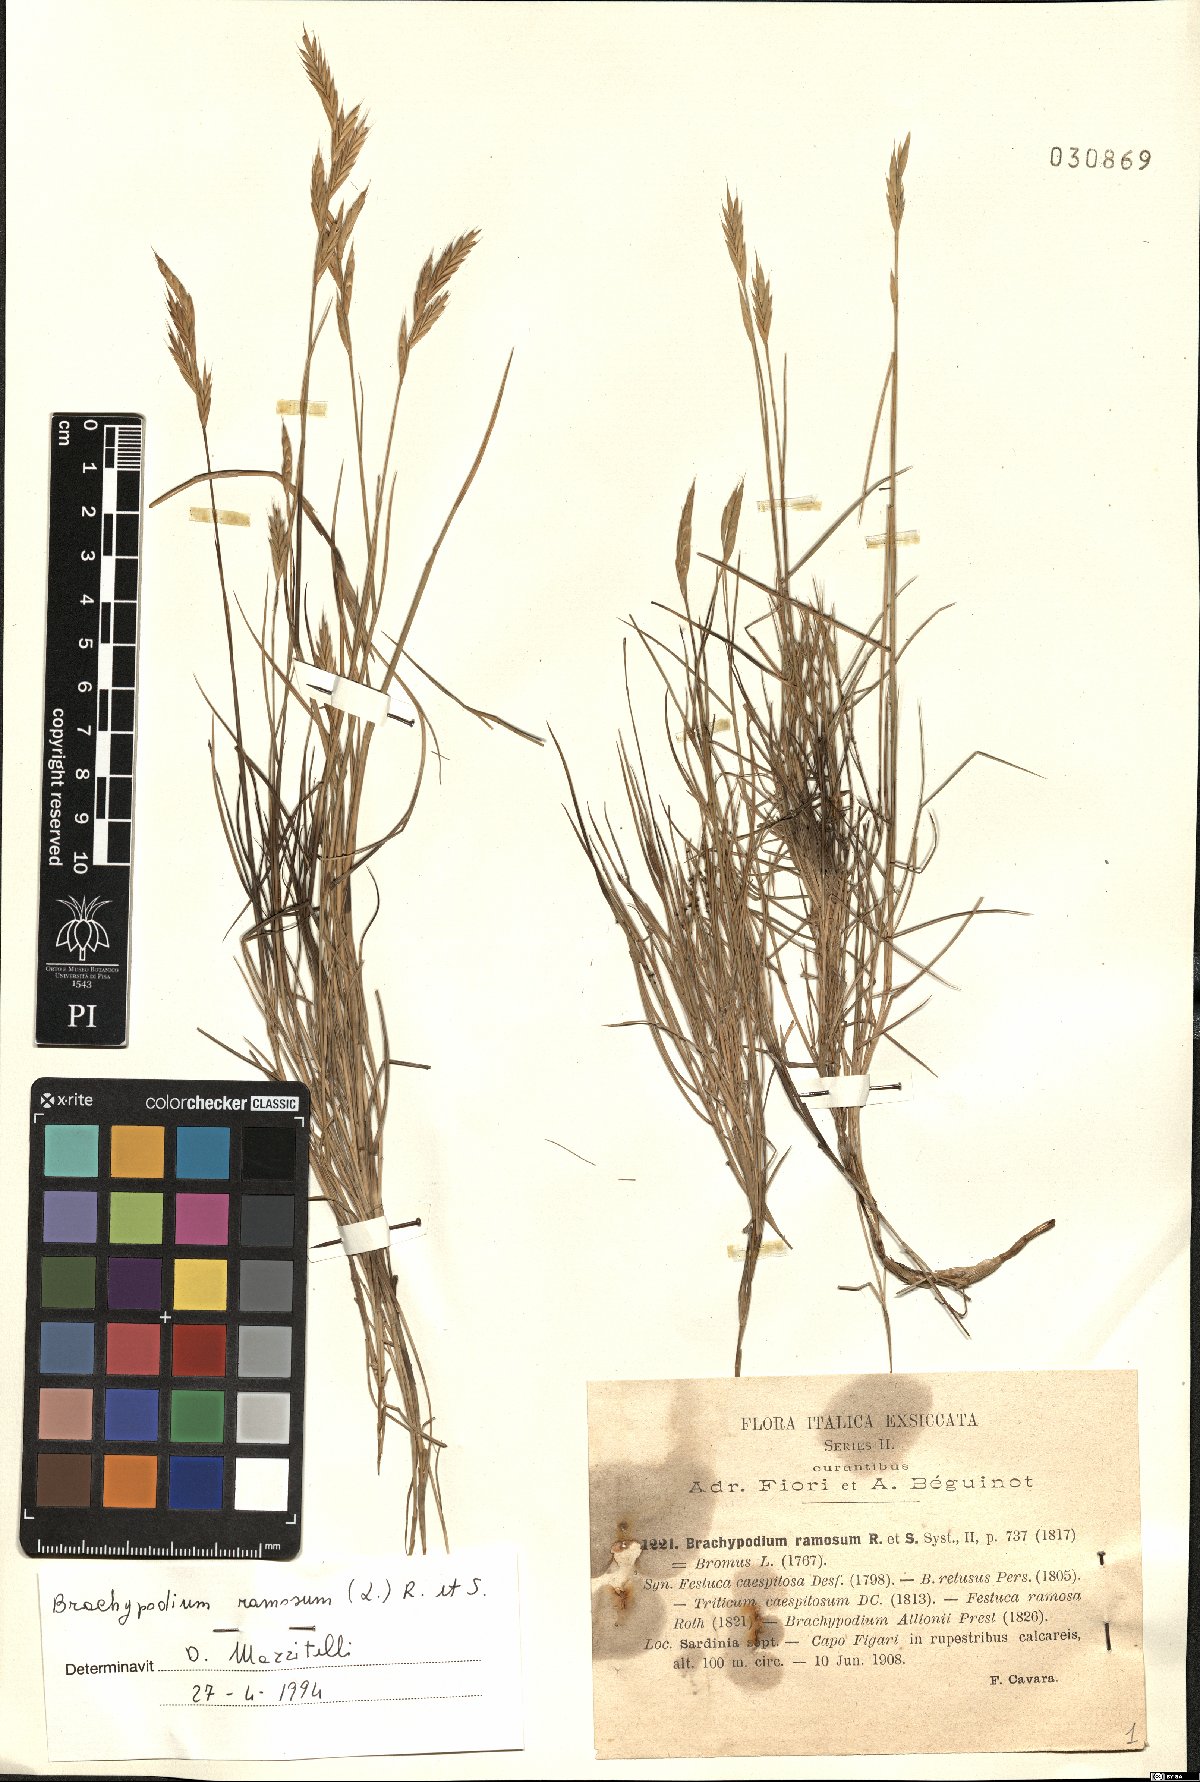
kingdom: Plantae
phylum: Tracheophyta
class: Liliopsida
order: Poales
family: Poaceae
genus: Brachypodium
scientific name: Brachypodium retusum
